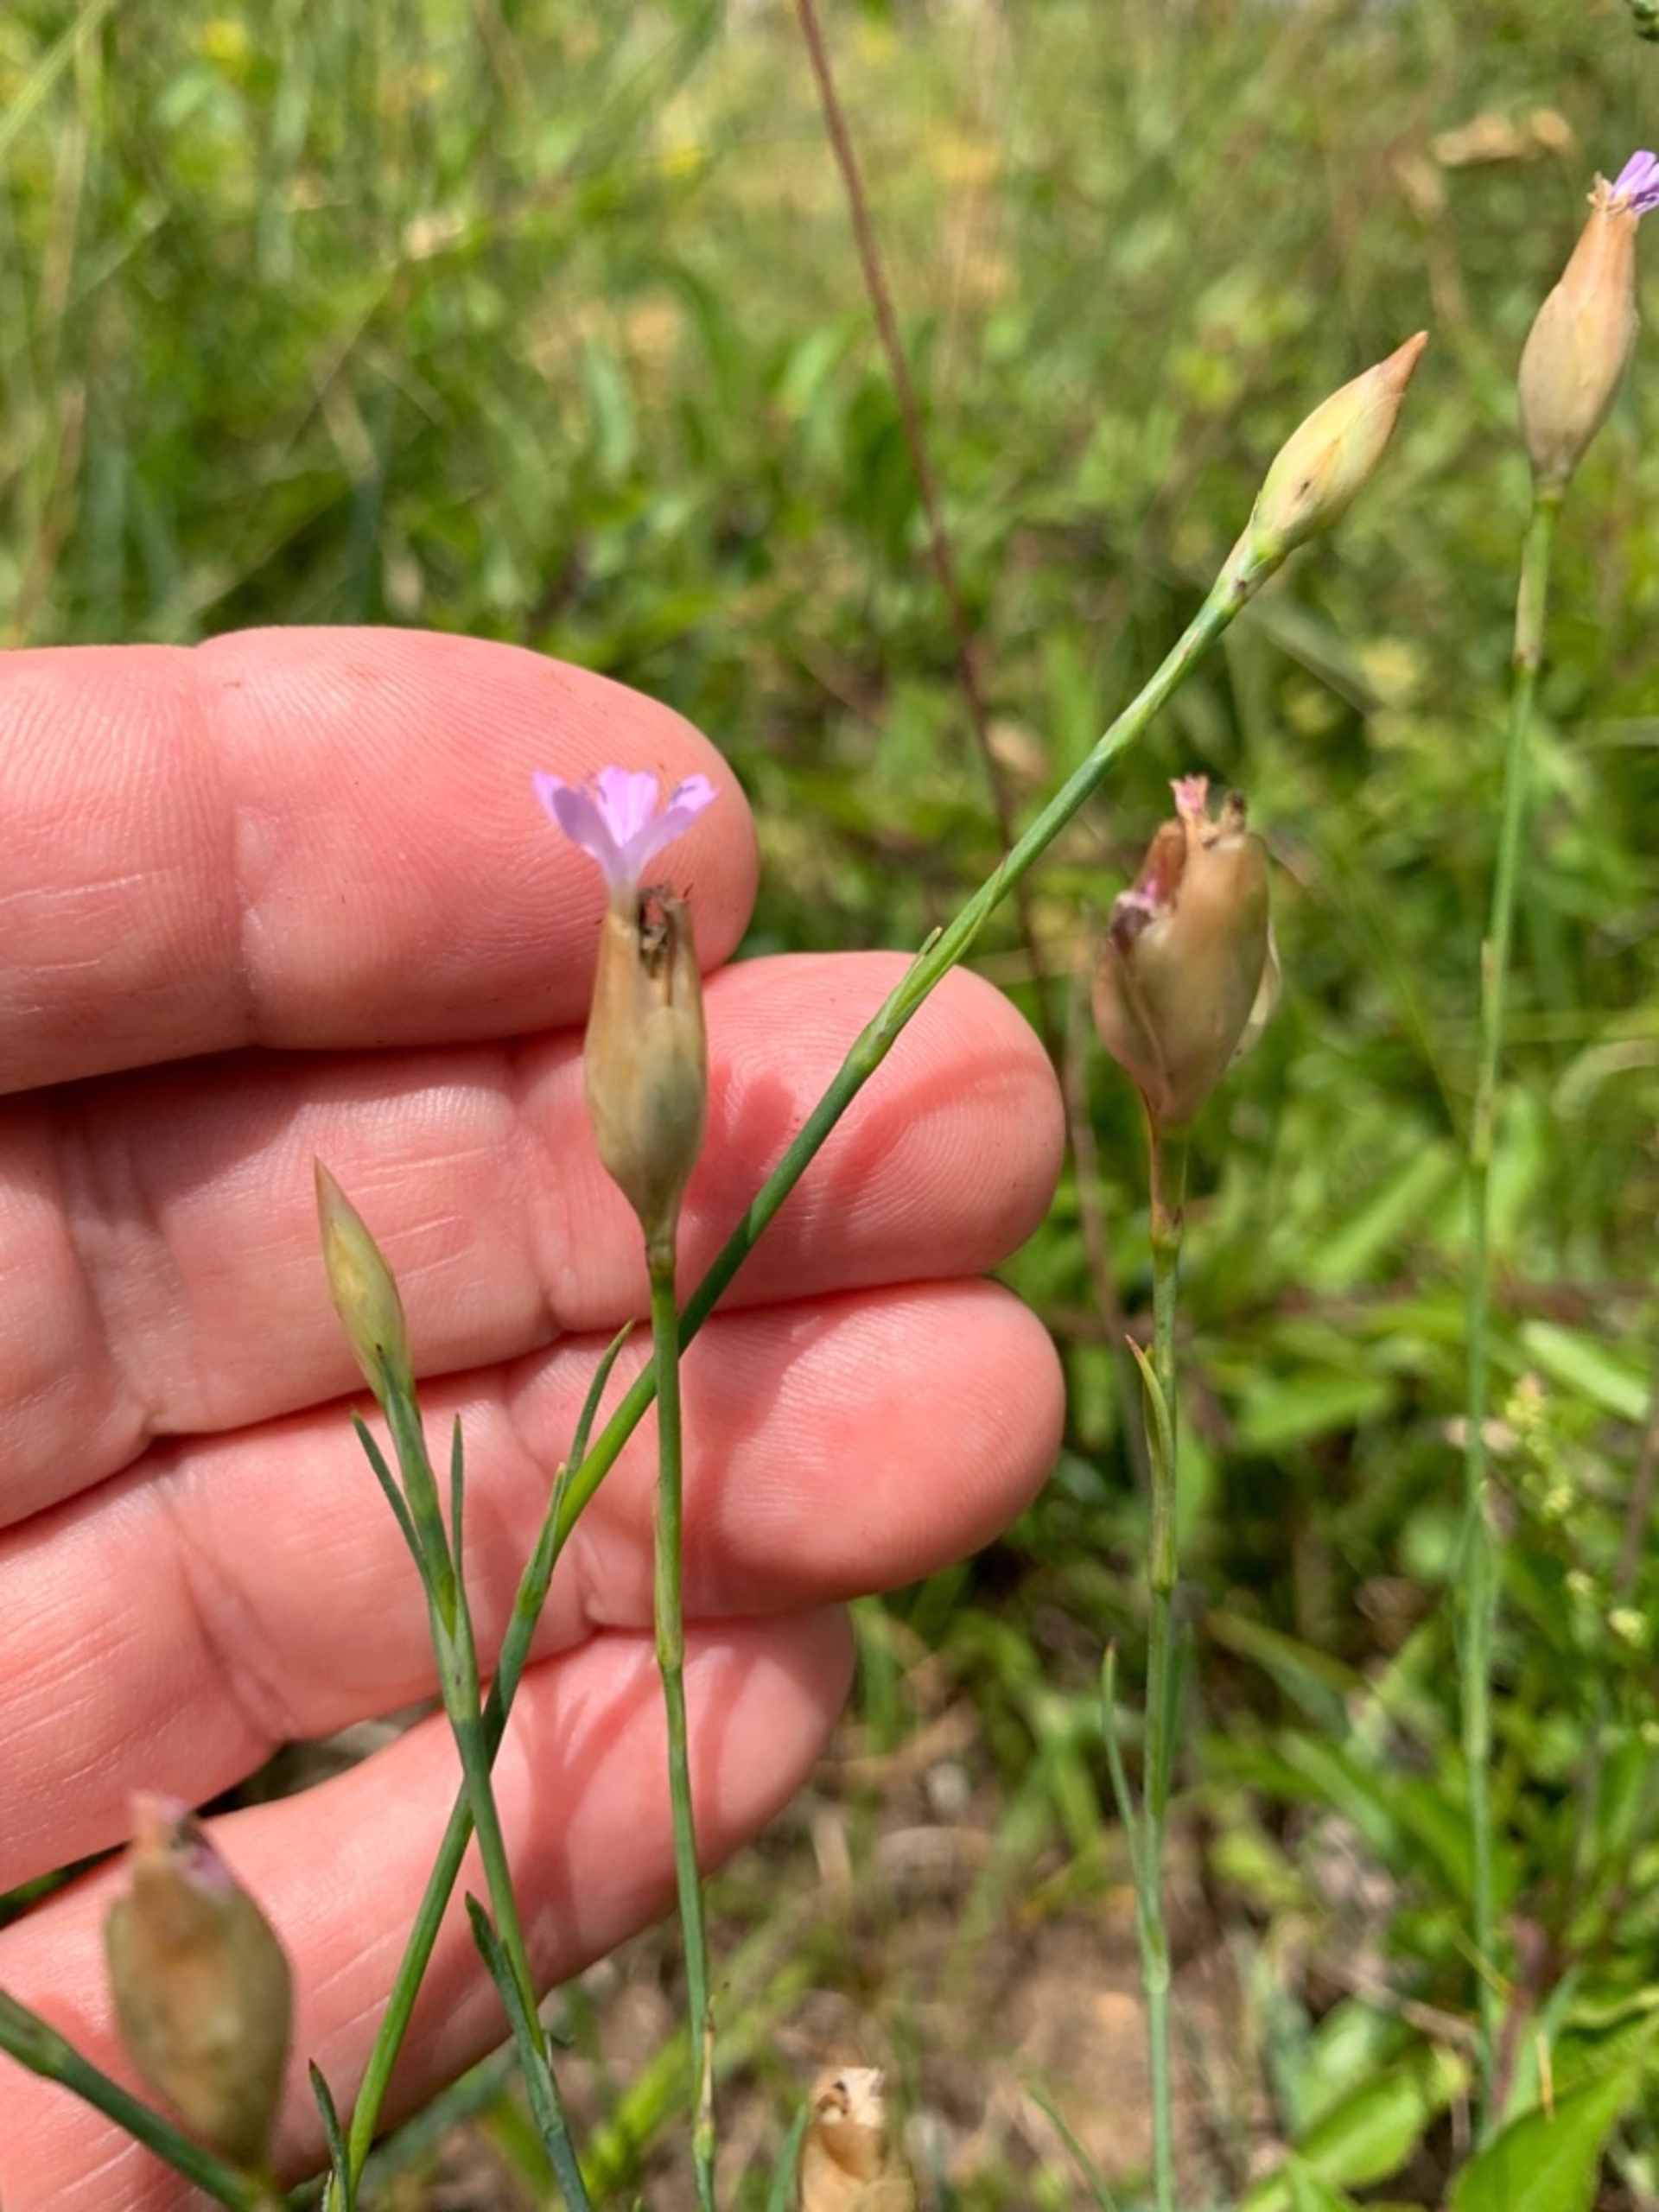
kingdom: Plantae
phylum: Tracheophyta
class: Magnoliopsida
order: Caryophyllales
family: Caryophyllaceae
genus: Petrorhagia
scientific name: Petrorhagia prolifera
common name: Knopnellike
